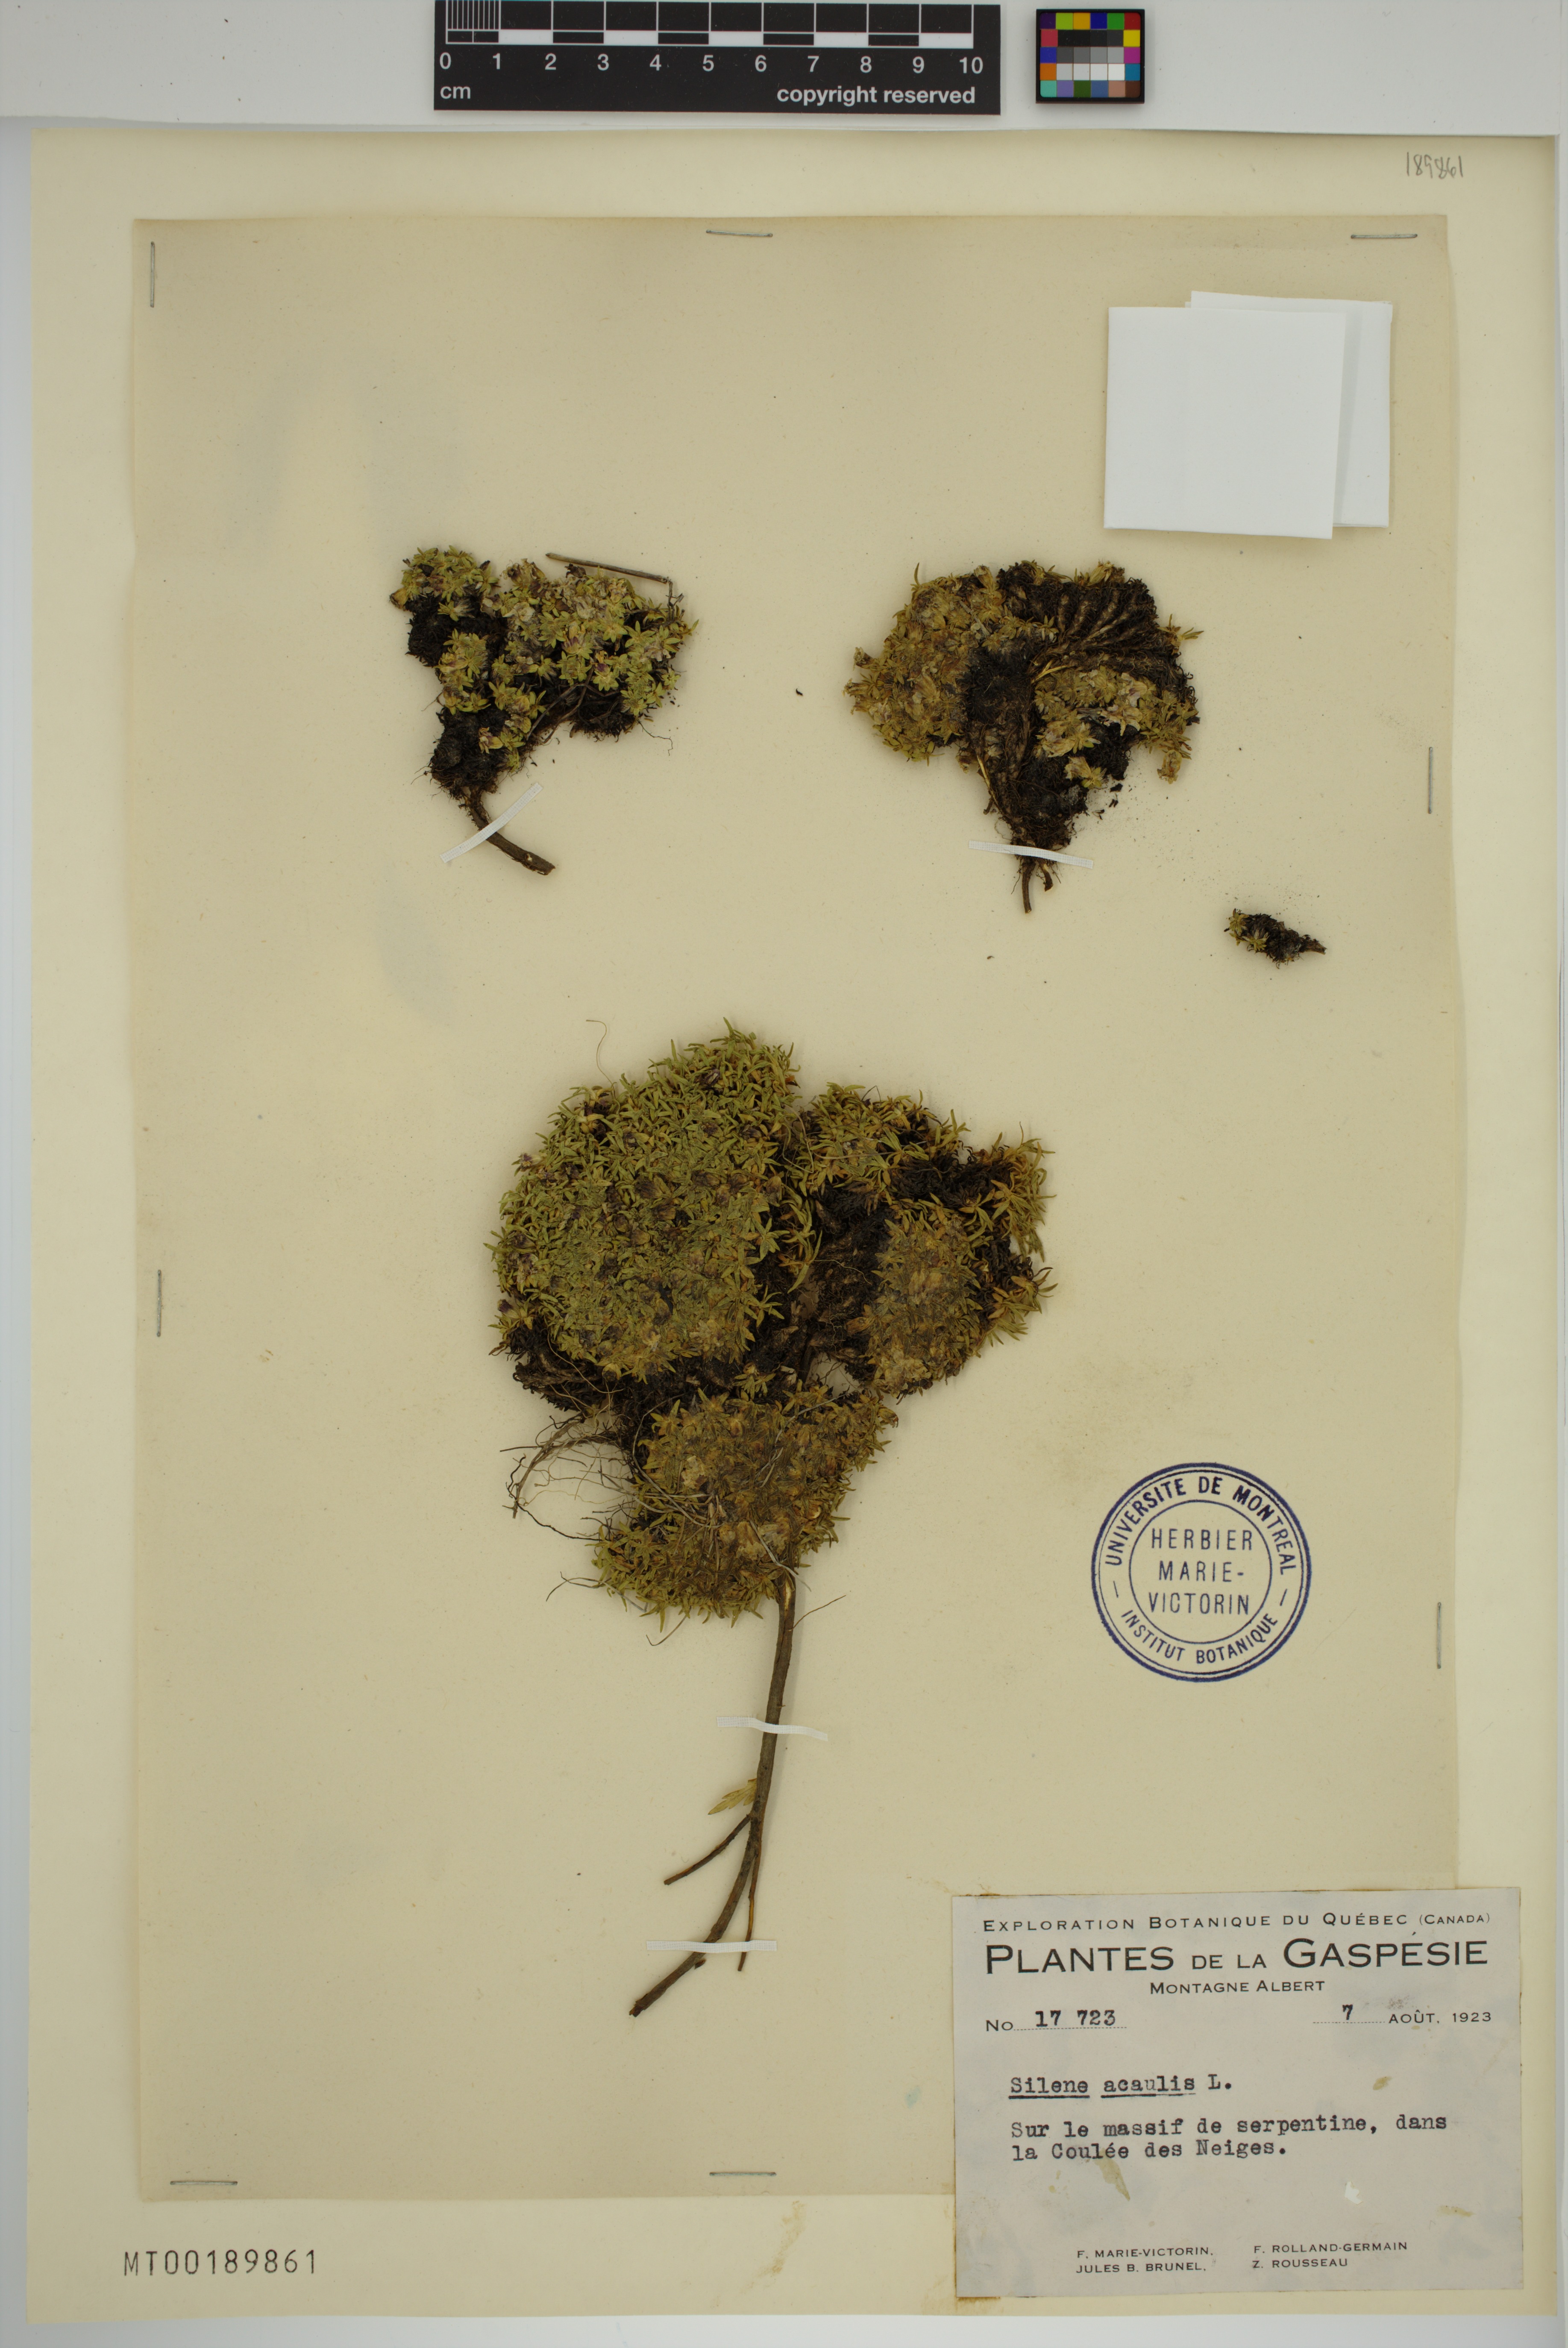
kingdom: Plantae
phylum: Tracheophyta
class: Magnoliopsida
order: Caryophyllales
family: Caryophyllaceae
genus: Silene
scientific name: Silene acaulis
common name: Moss campion
